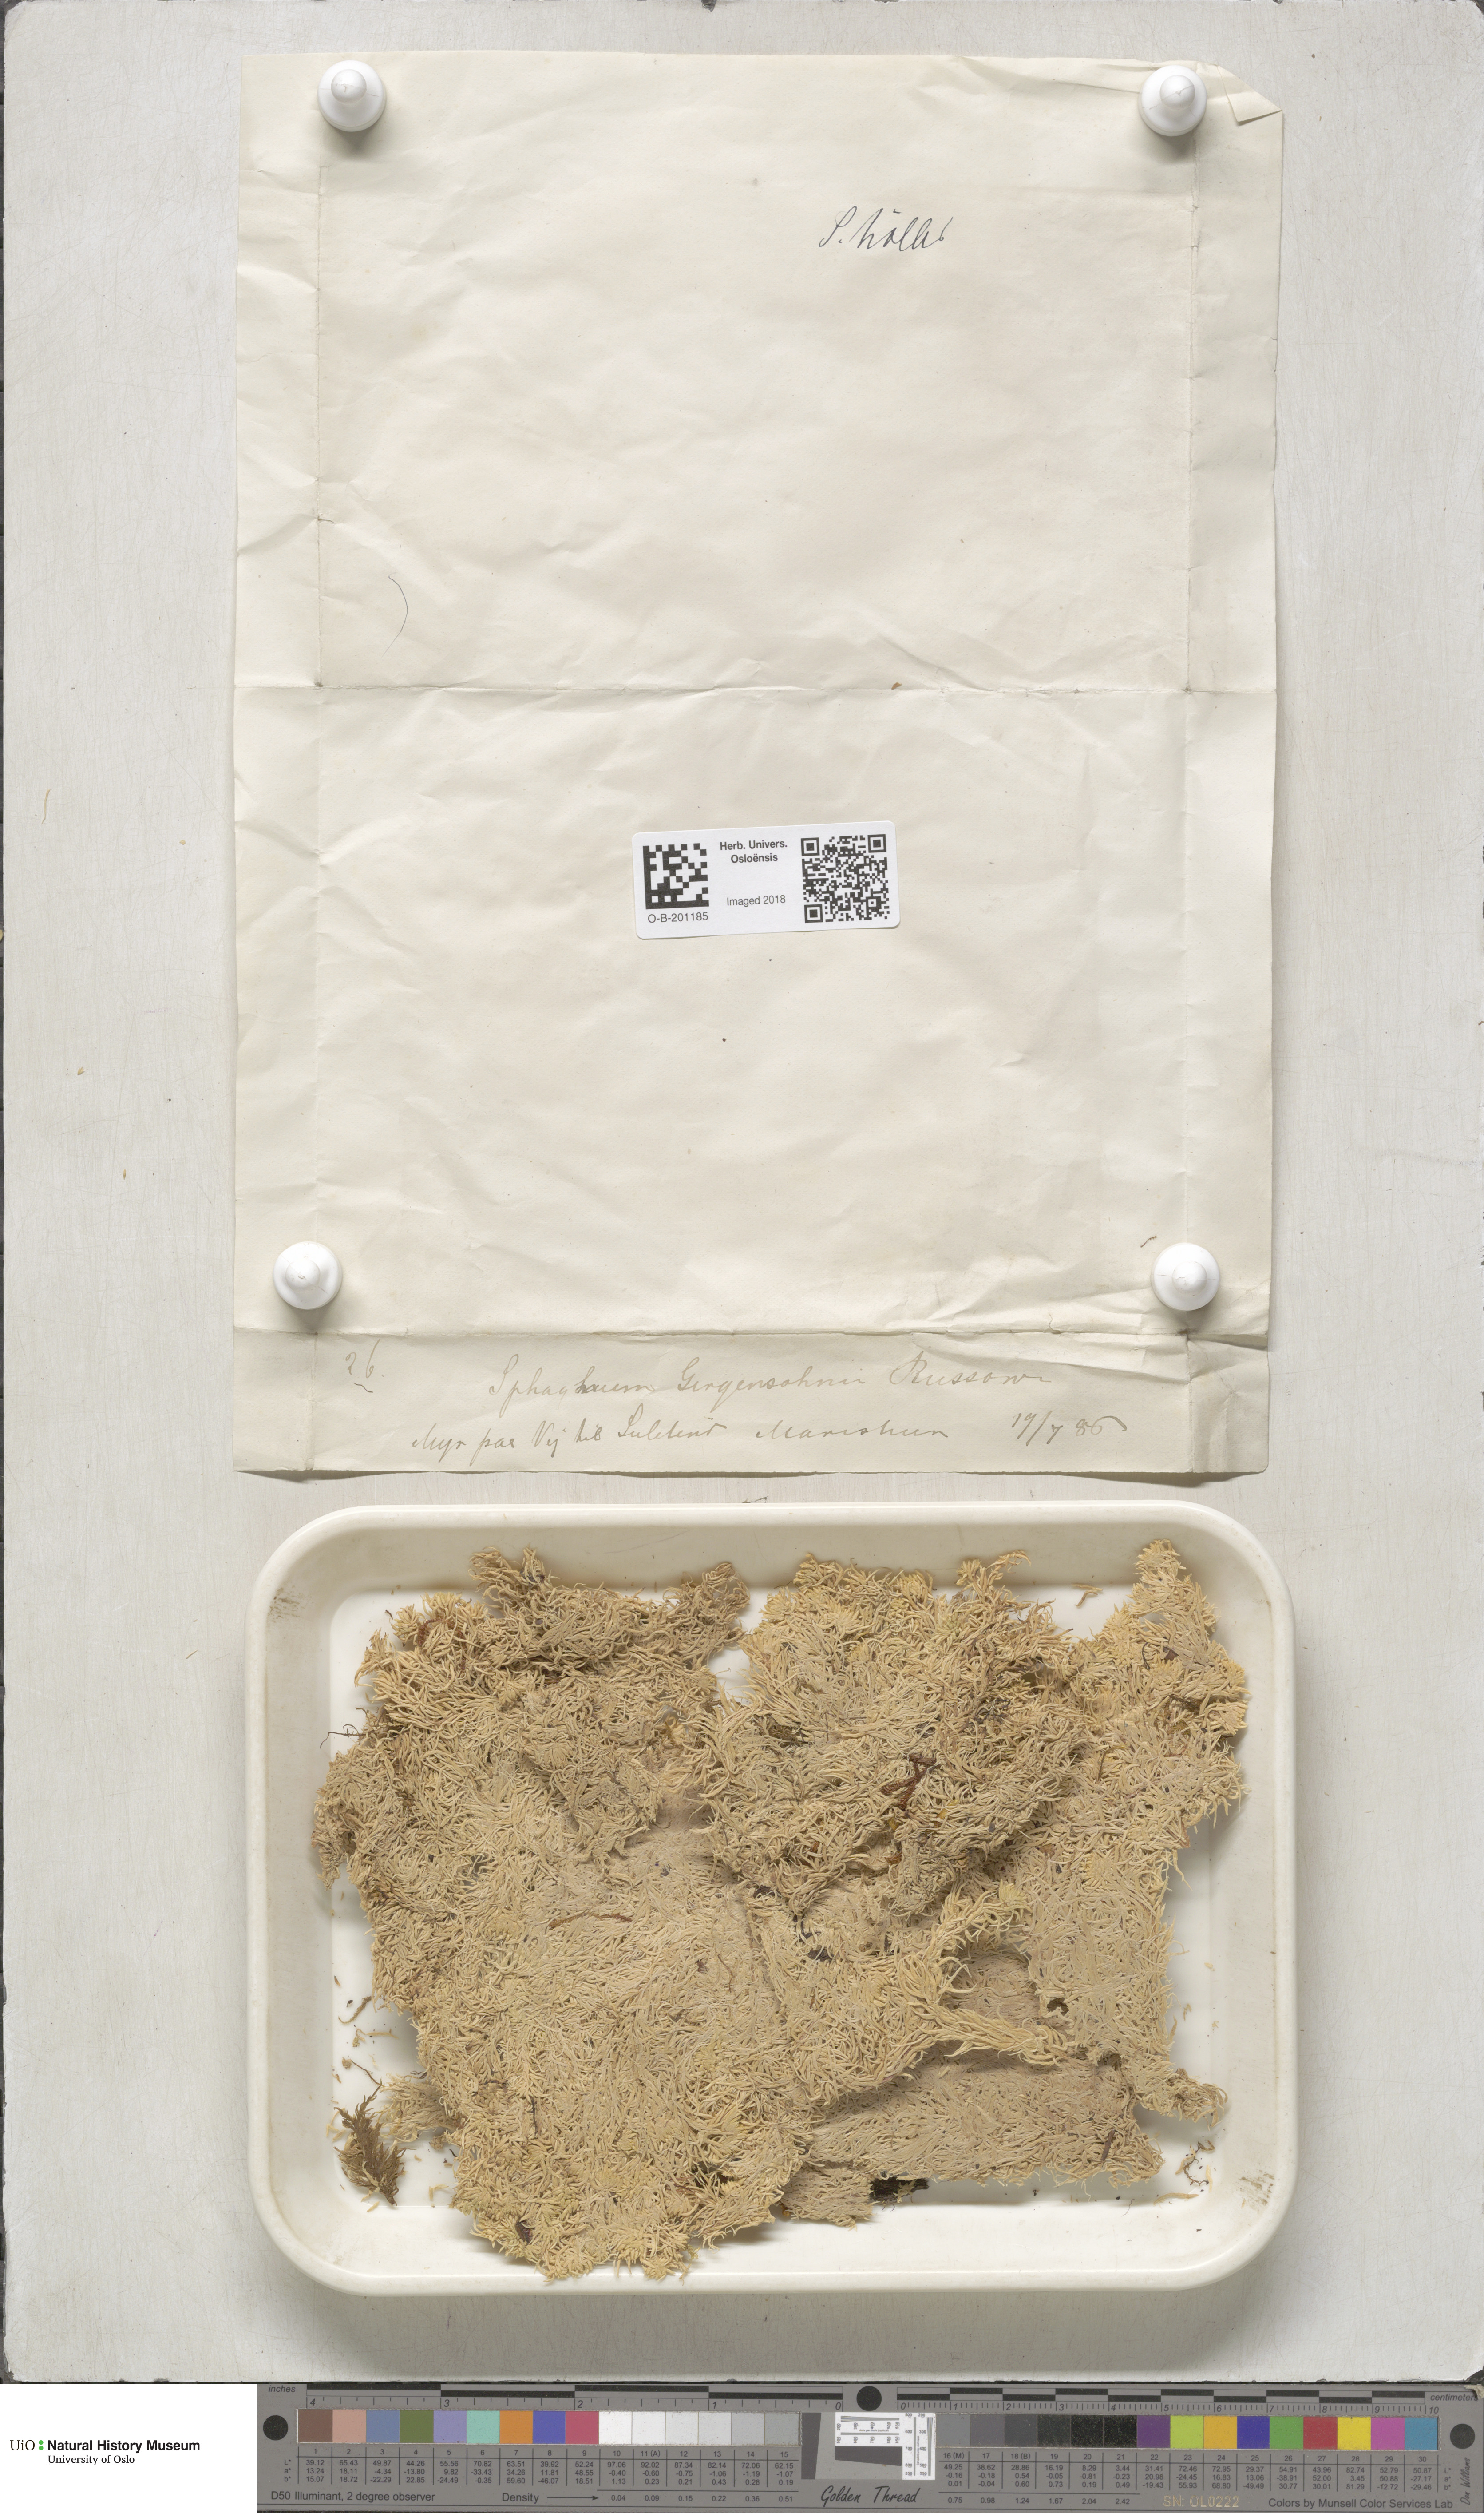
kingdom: Plantae
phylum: Bryophyta
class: Sphagnopsida
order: Sphagnales
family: Sphagnaceae
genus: Sphagnum
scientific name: Sphagnum girgensohnii
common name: Girgensohn's peat moss
